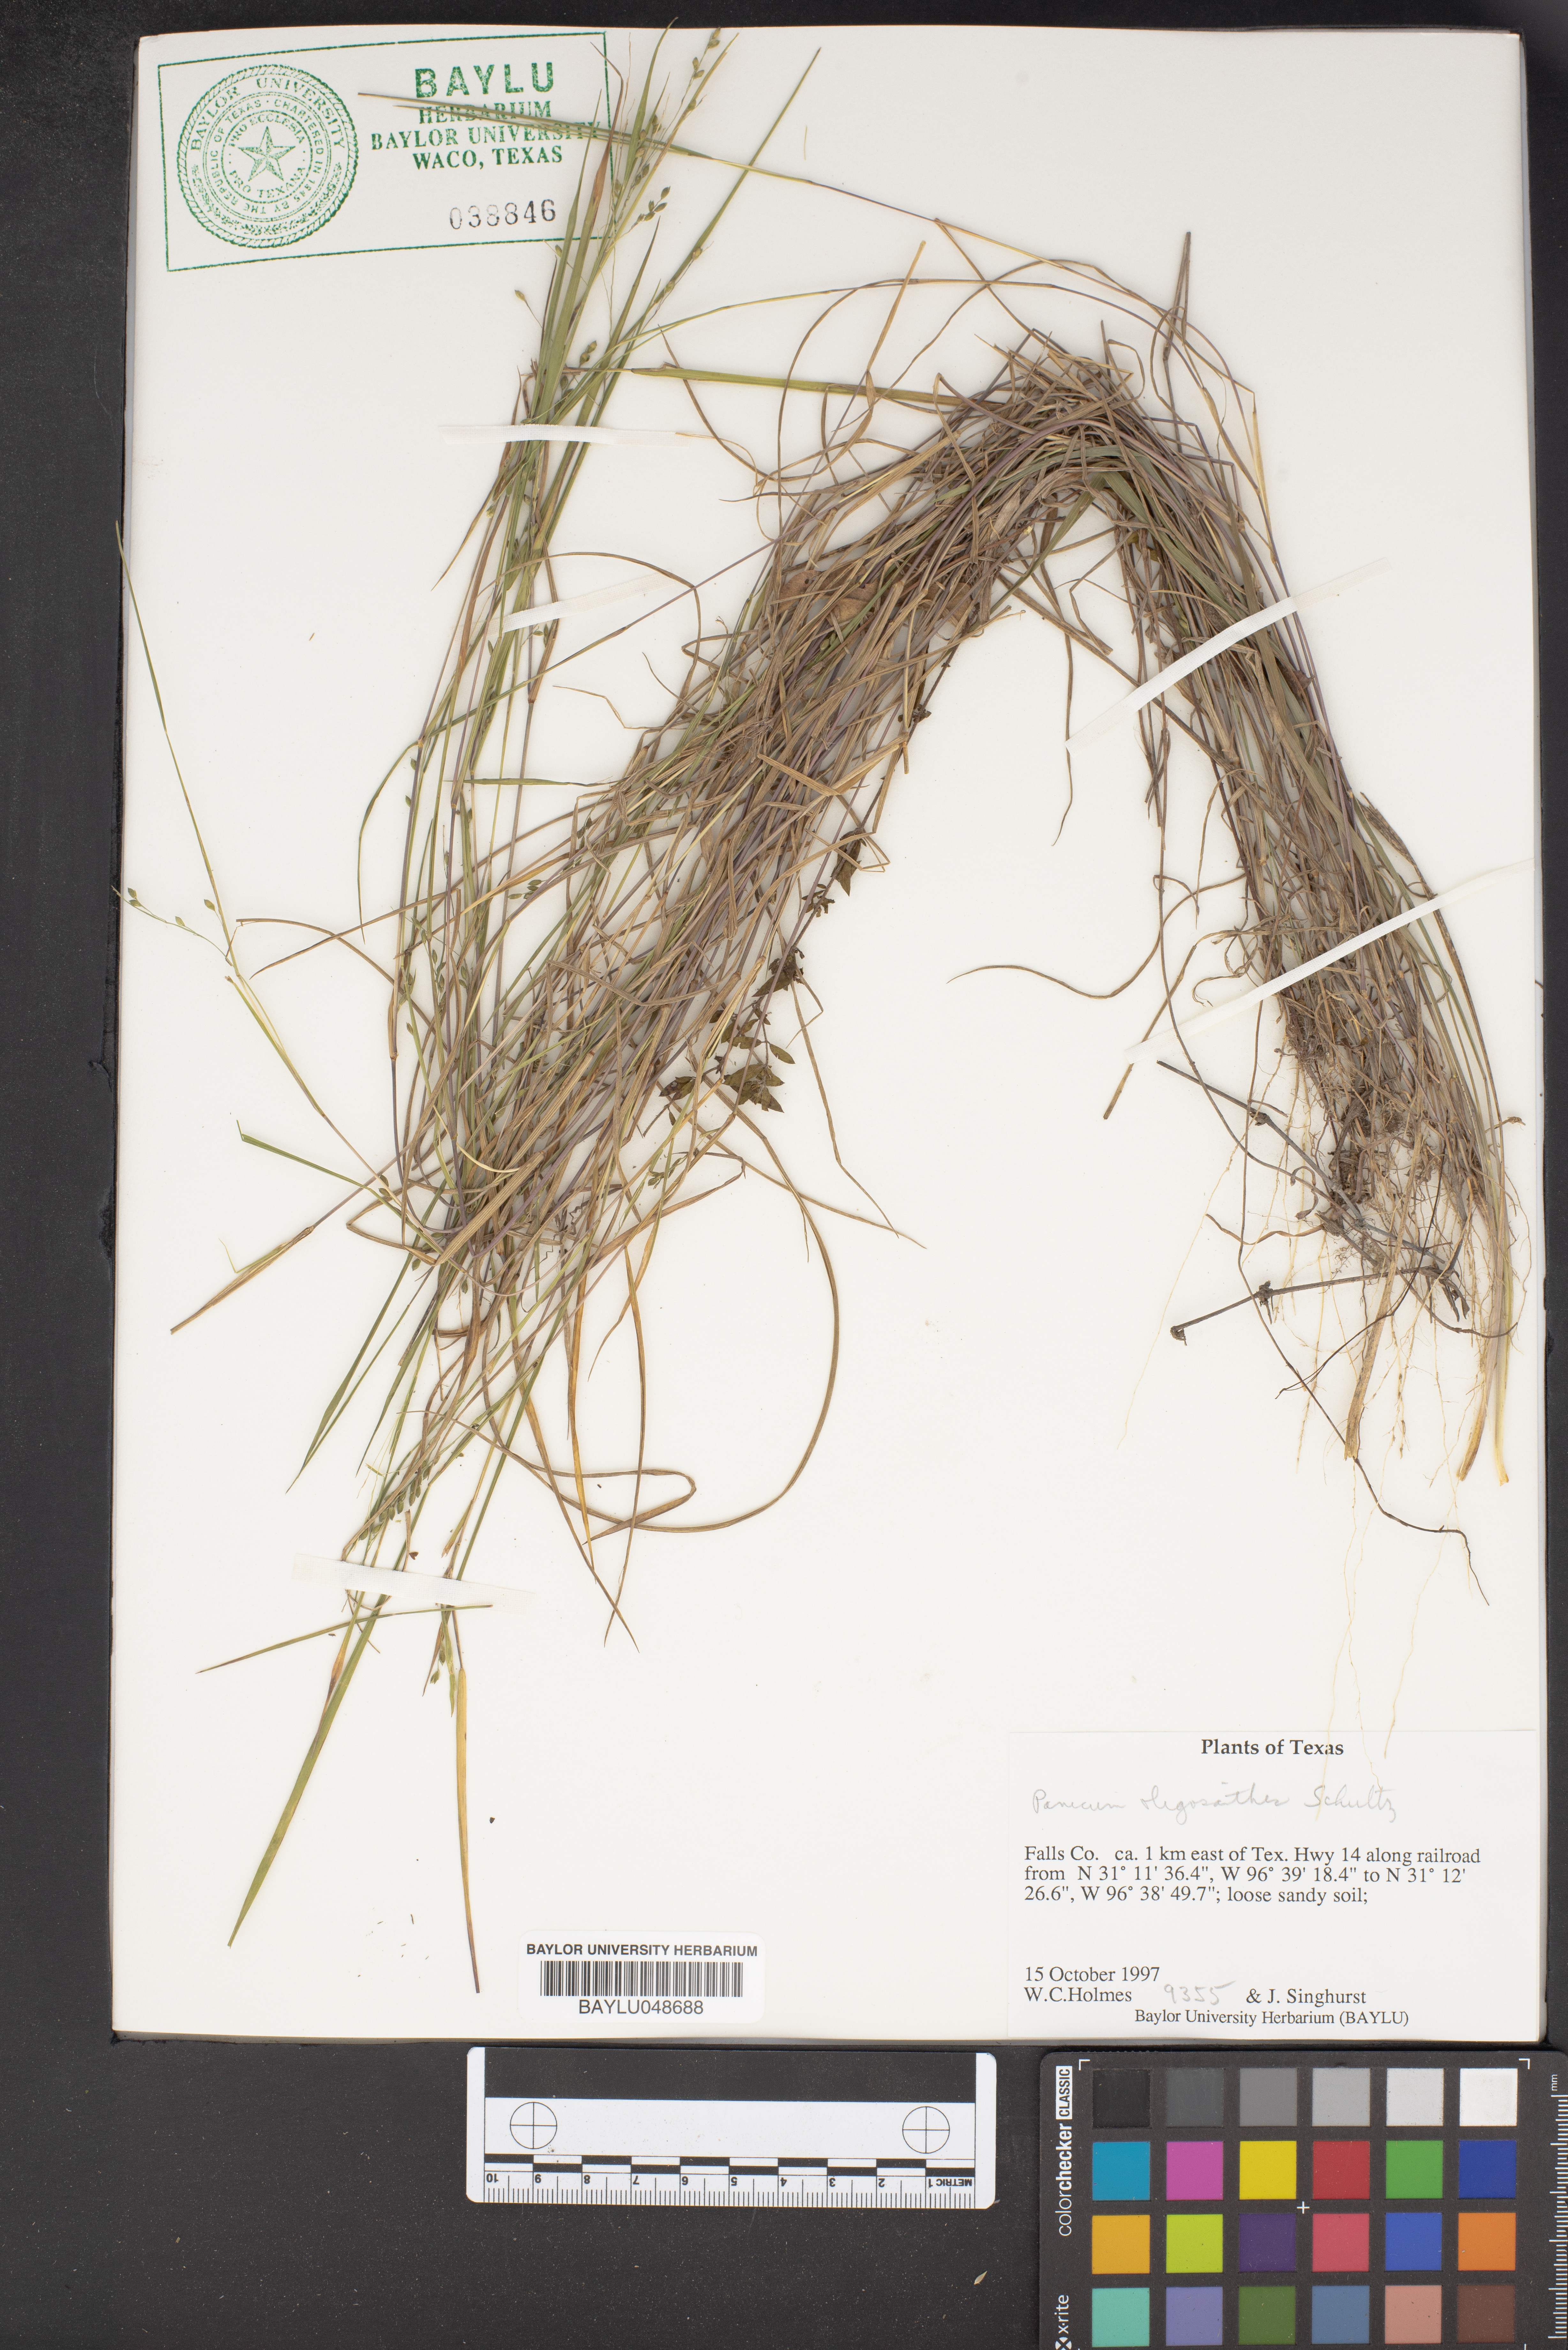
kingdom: Plantae
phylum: Tracheophyta
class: Liliopsida
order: Poales
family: Poaceae
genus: Dichanthelium
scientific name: Dichanthelium oligosanthes
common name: Few-anther obscuregrass
